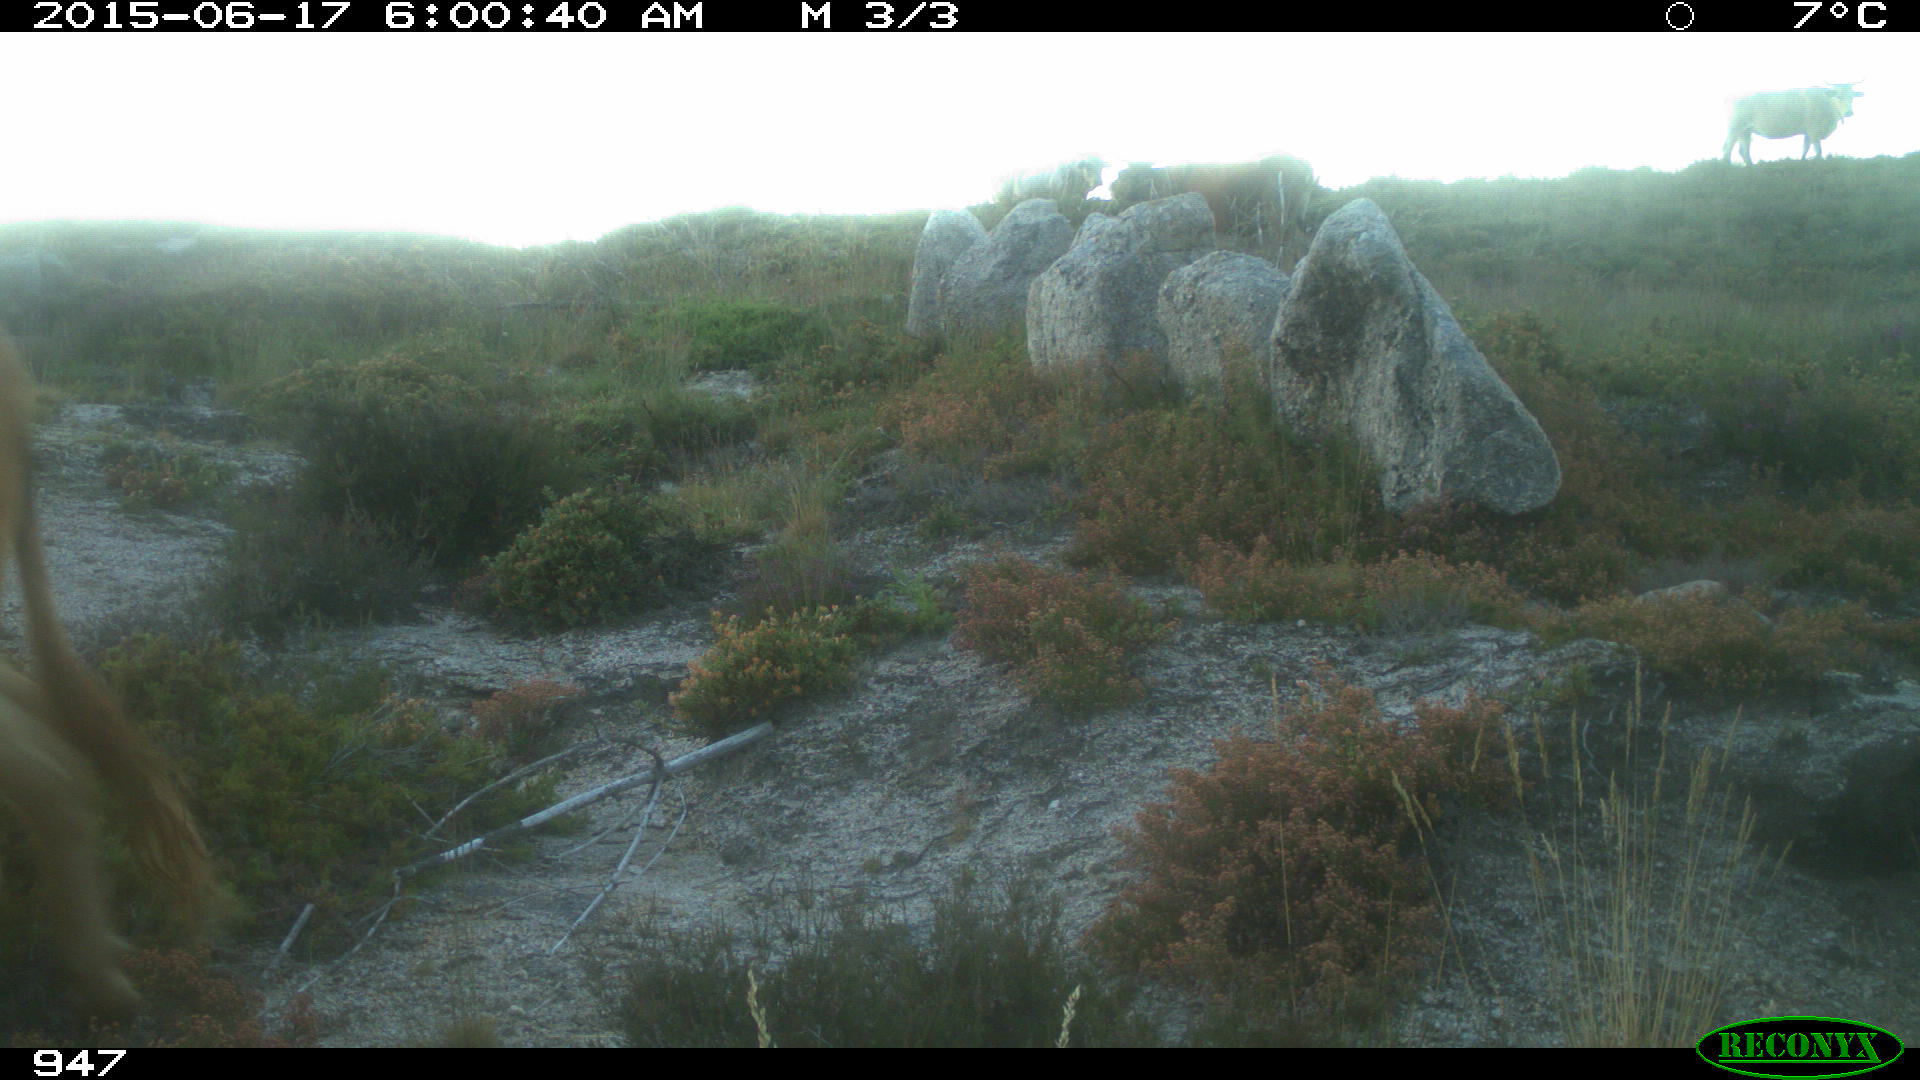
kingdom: Animalia
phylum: Chordata
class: Mammalia
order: Artiodactyla
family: Bovidae
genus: Bos
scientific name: Bos taurus
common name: Domesticated cattle
